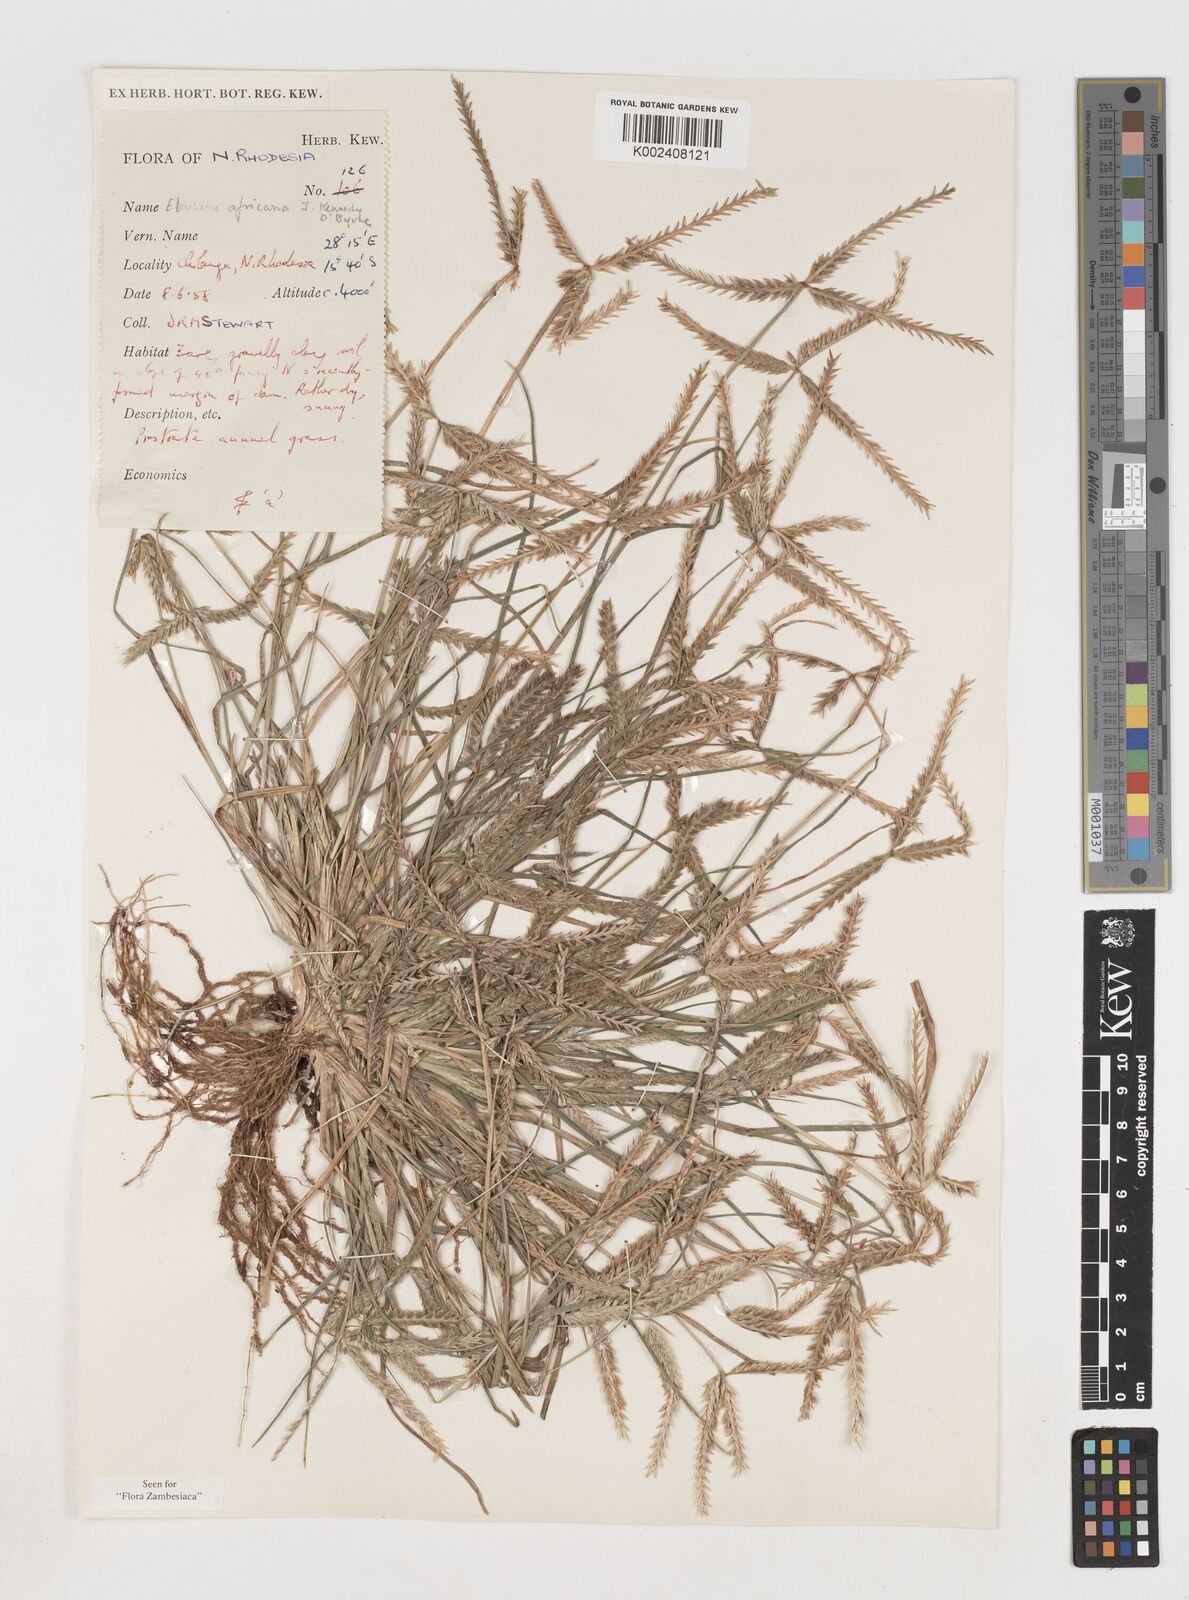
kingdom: Plantae
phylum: Tracheophyta
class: Liliopsida
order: Poales
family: Poaceae
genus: Eleusine
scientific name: Eleusine africana
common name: Wild african finger millet
